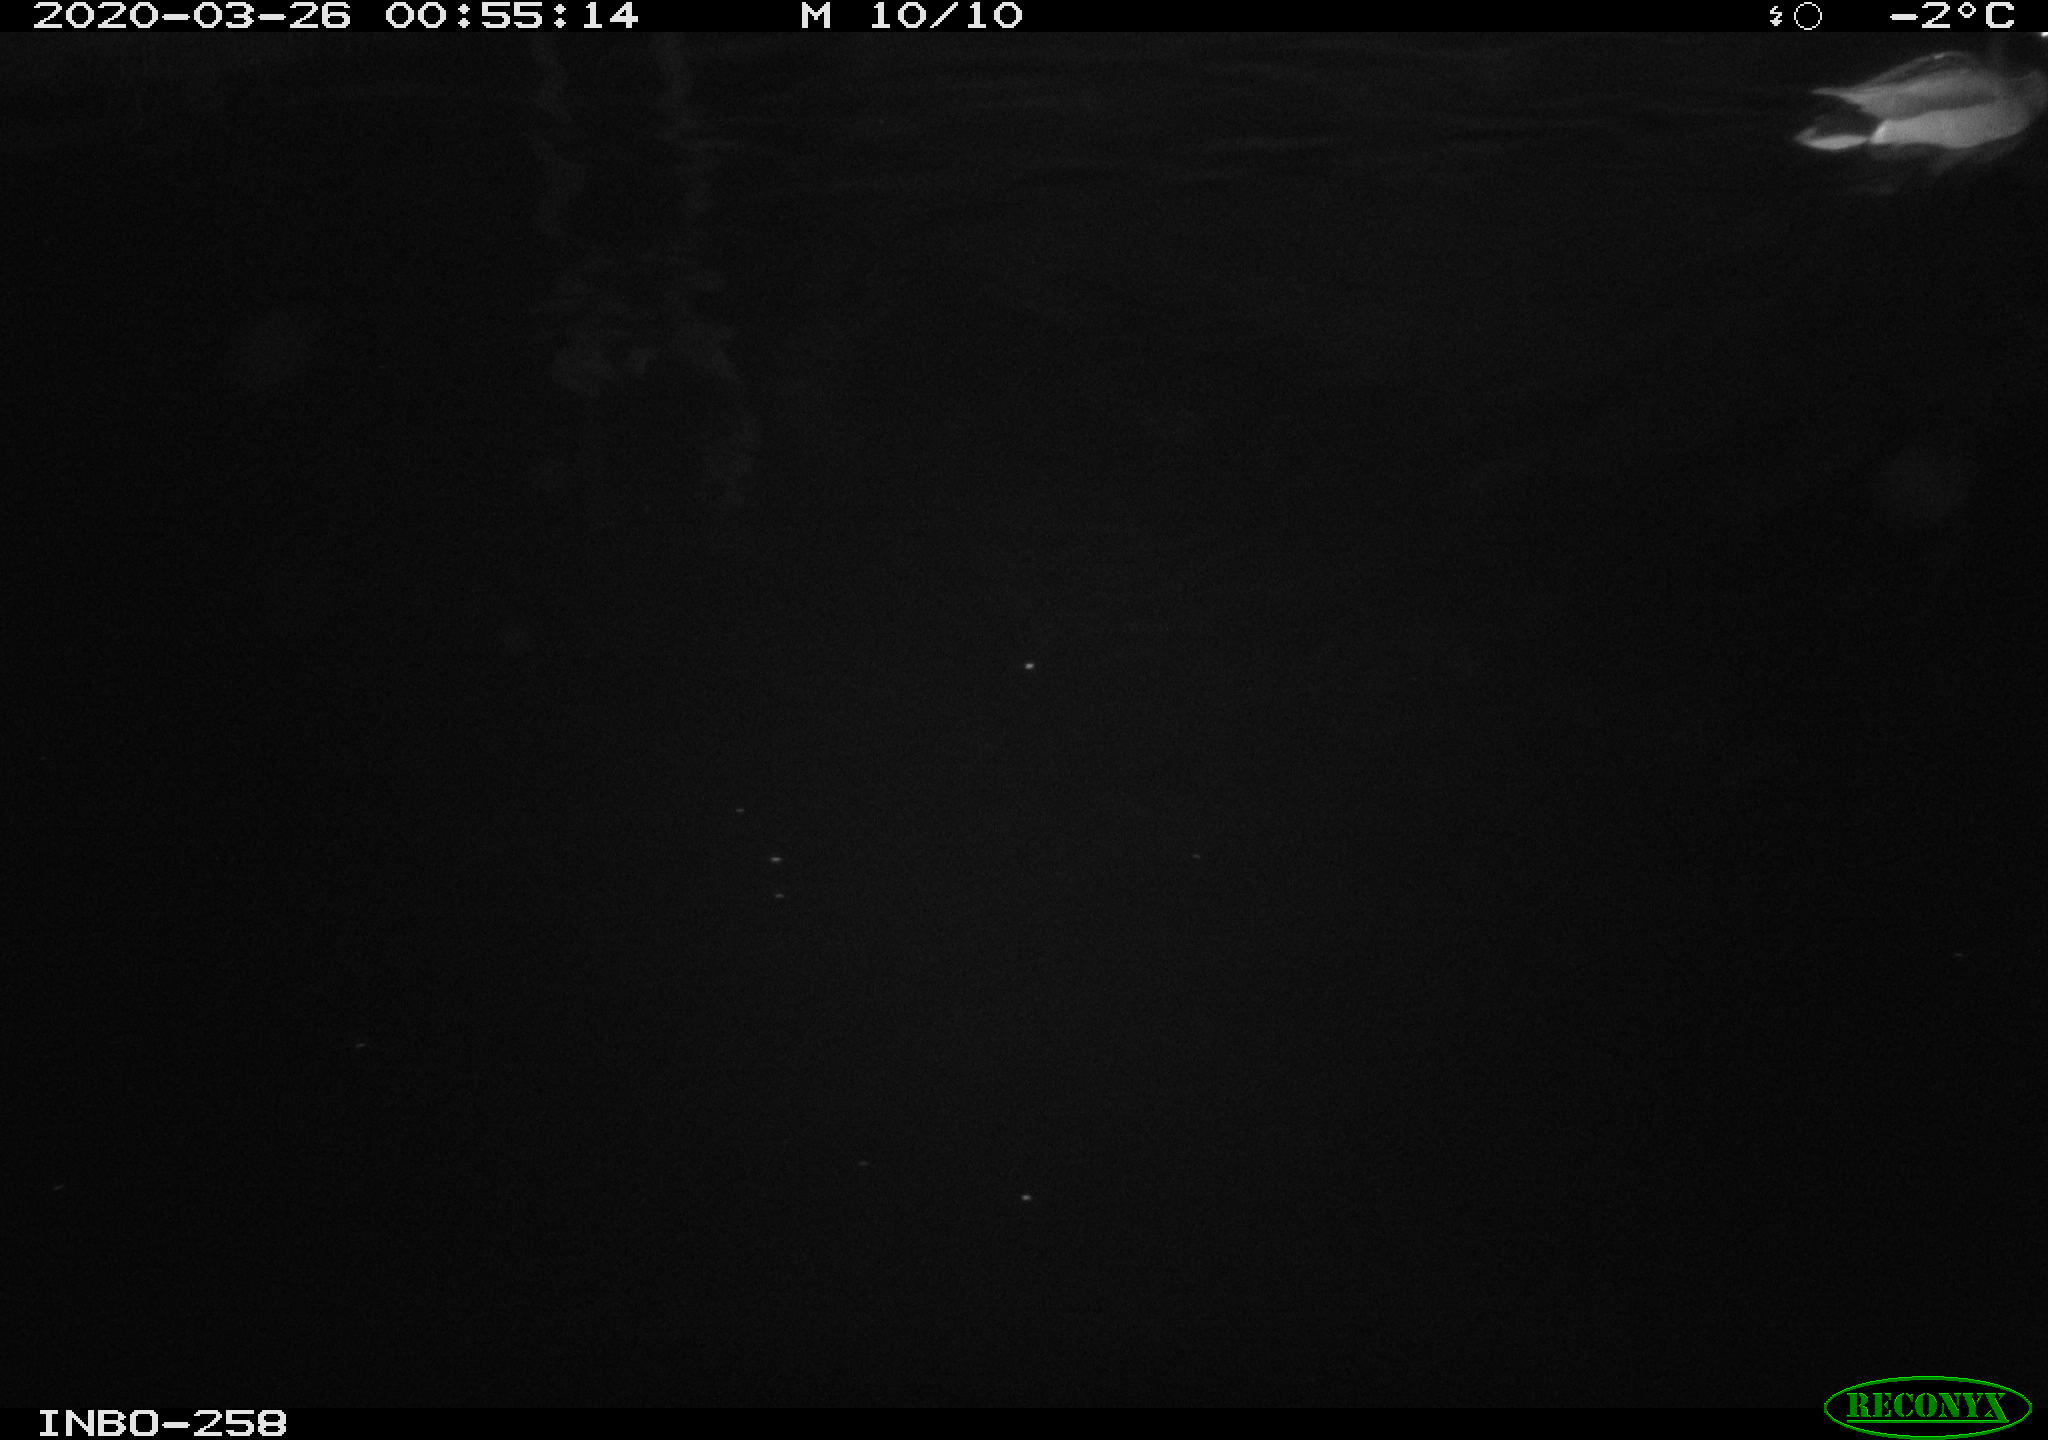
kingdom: Animalia
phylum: Chordata
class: Aves
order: Anseriformes
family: Anatidae
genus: Anas
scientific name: Anas platyrhynchos
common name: Mallard
